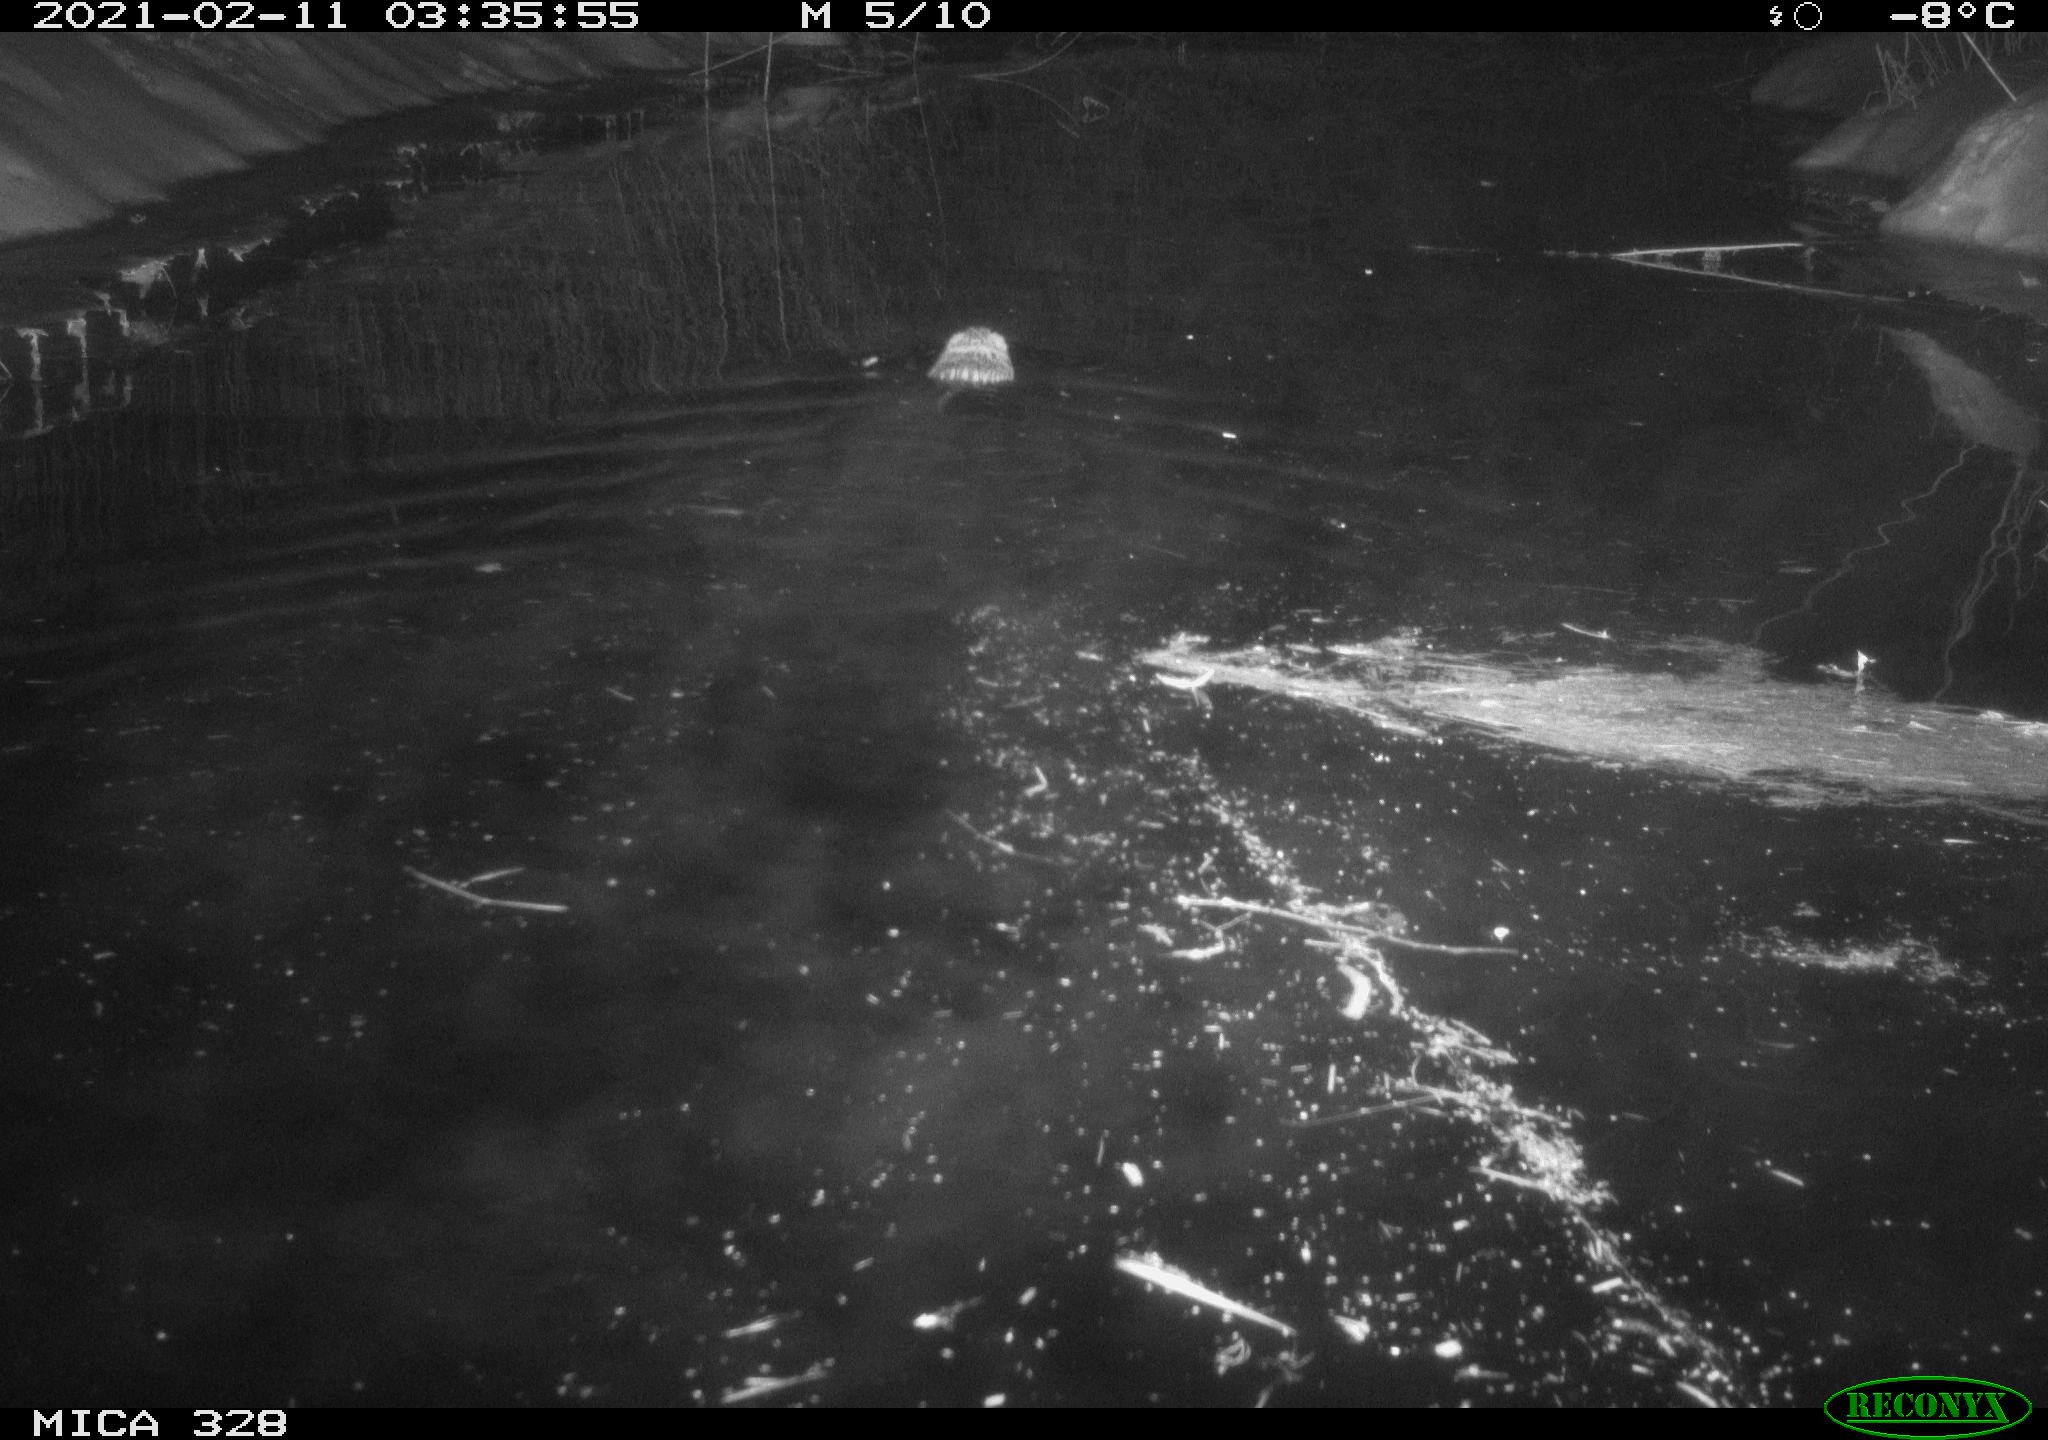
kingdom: Animalia
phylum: Chordata
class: Mammalia
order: Rodentia
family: Cricetidae
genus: Ondatra
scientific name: Ondatra zibethicus
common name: Muskrat
